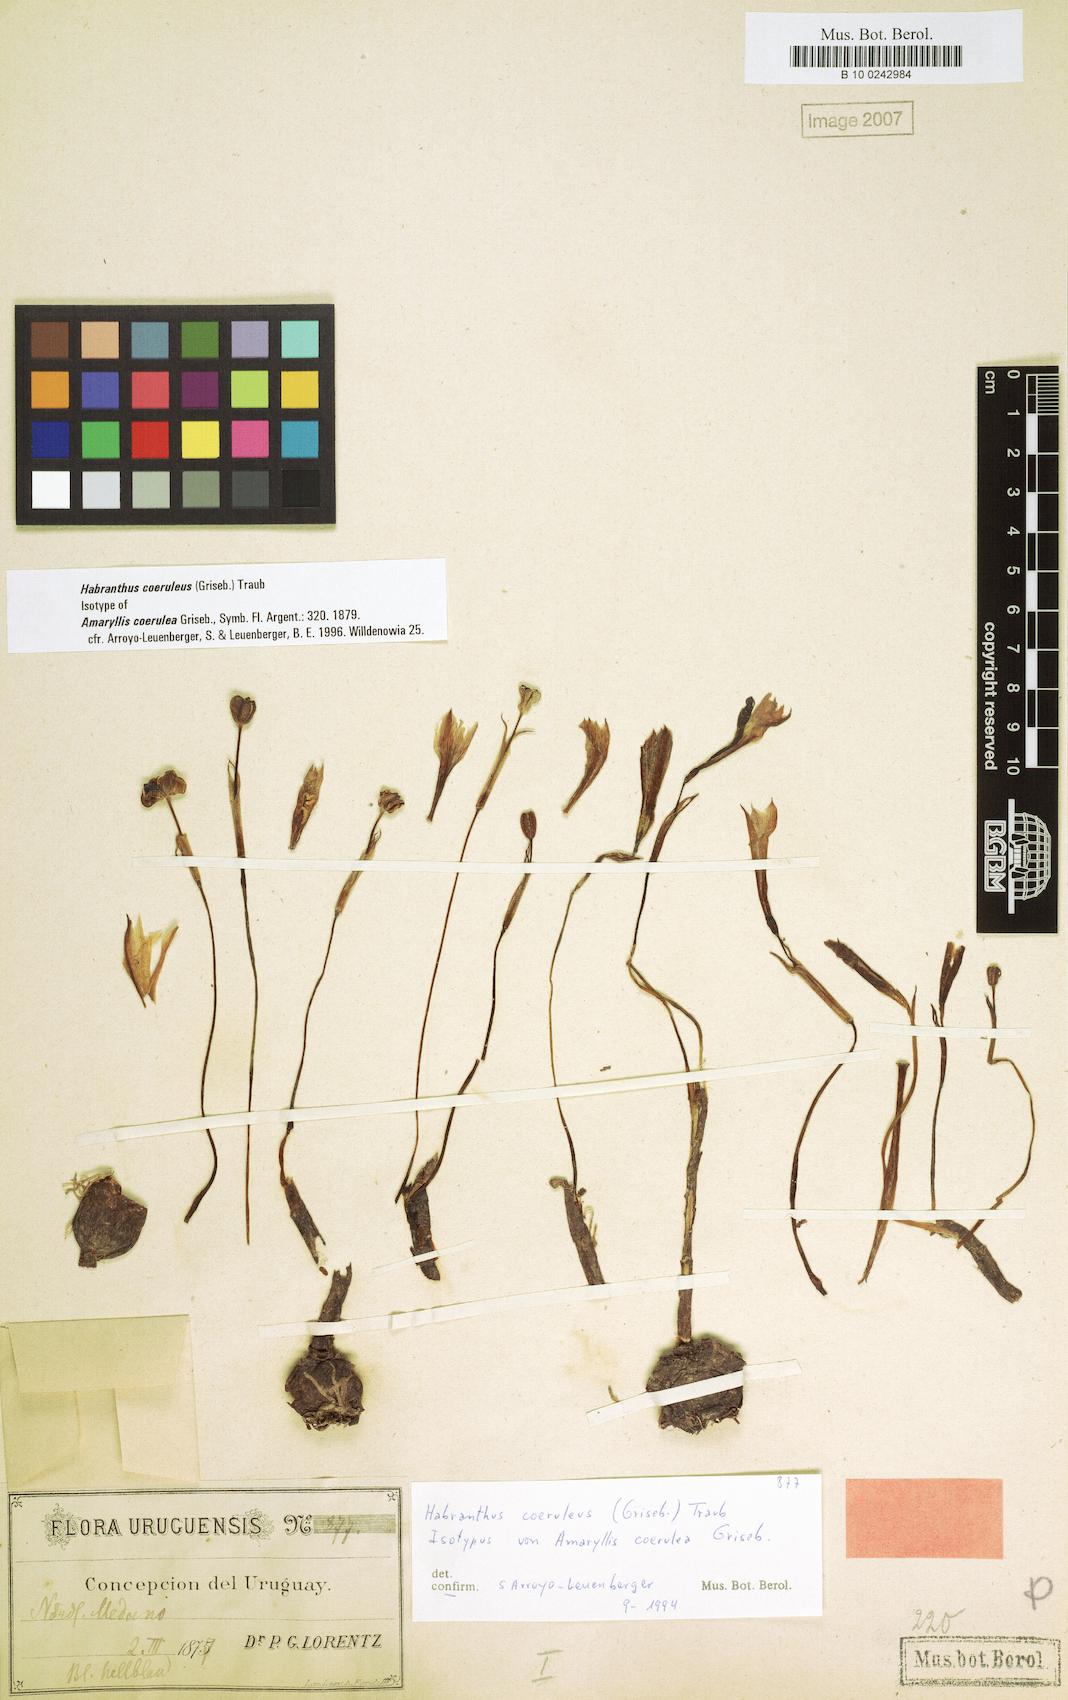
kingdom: Plantae
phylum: Tracheophyta
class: Liliopsida
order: Asparagales
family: Amaryllidaceae
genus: Zephyranthes
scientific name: Zephyranthes coerulea
